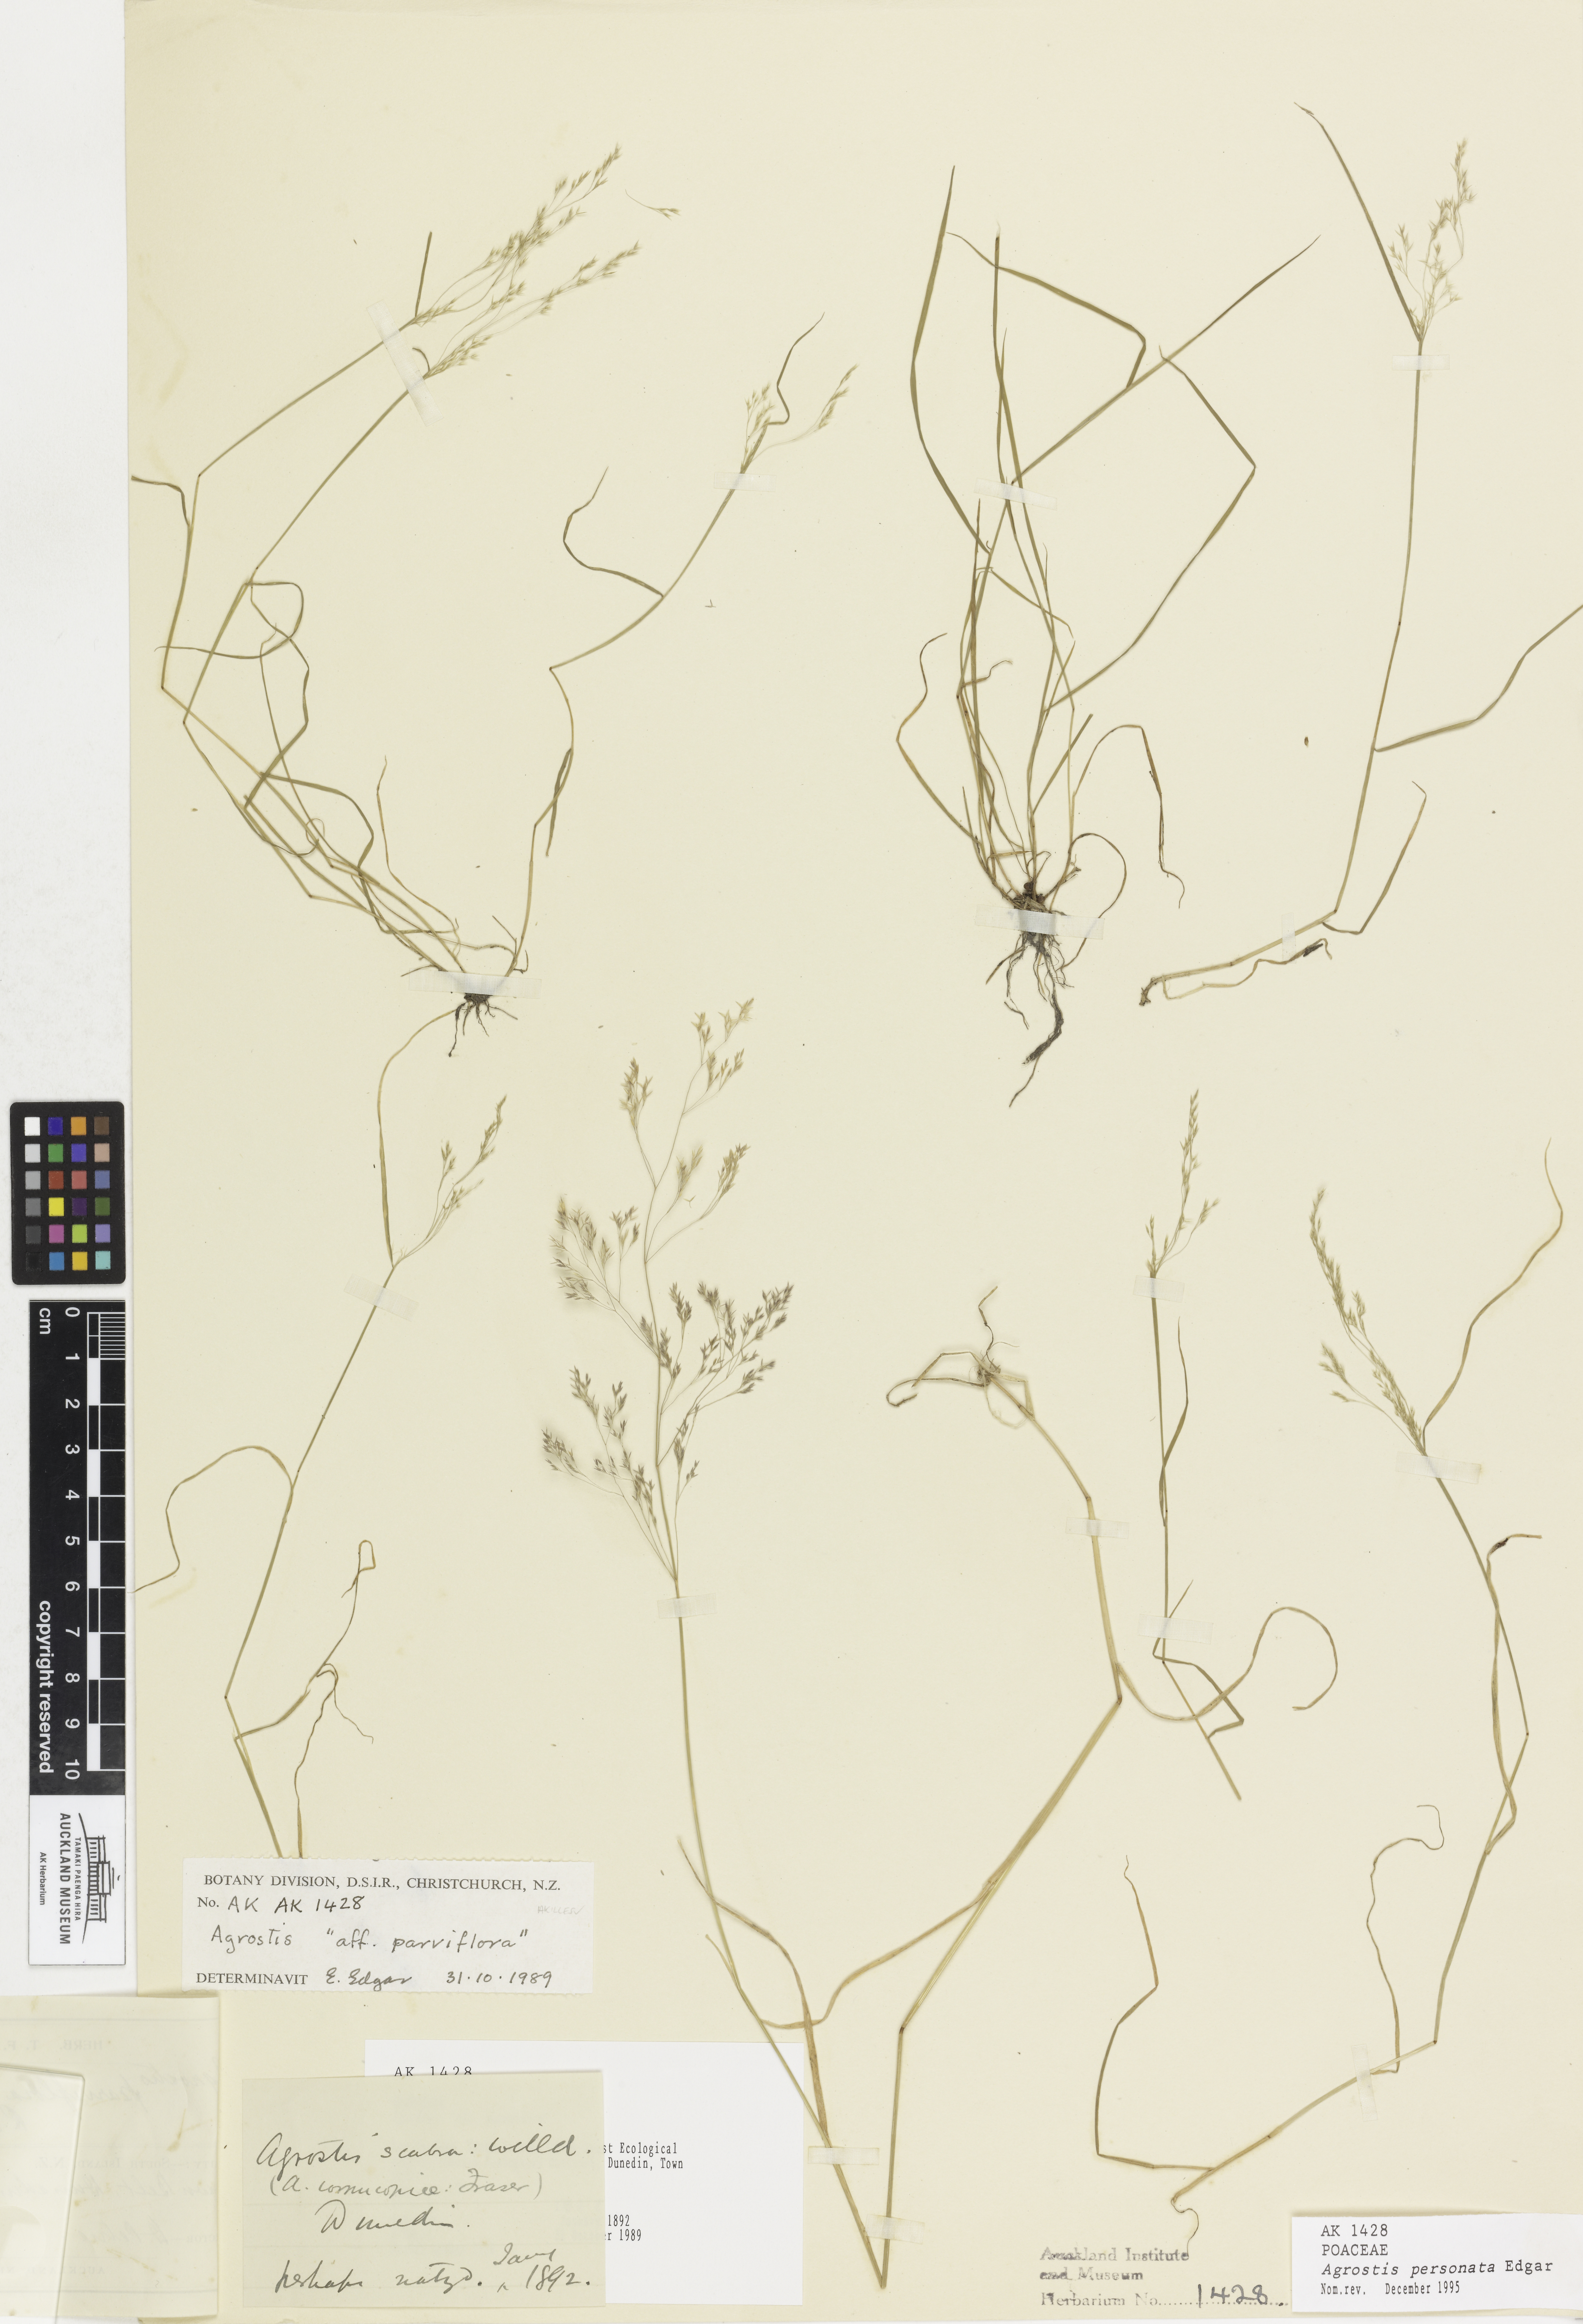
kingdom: Plantae
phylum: Tracheophyta
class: Liliopsida
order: Poales
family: Poaceae
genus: Agrostis
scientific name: Agrostis personata
